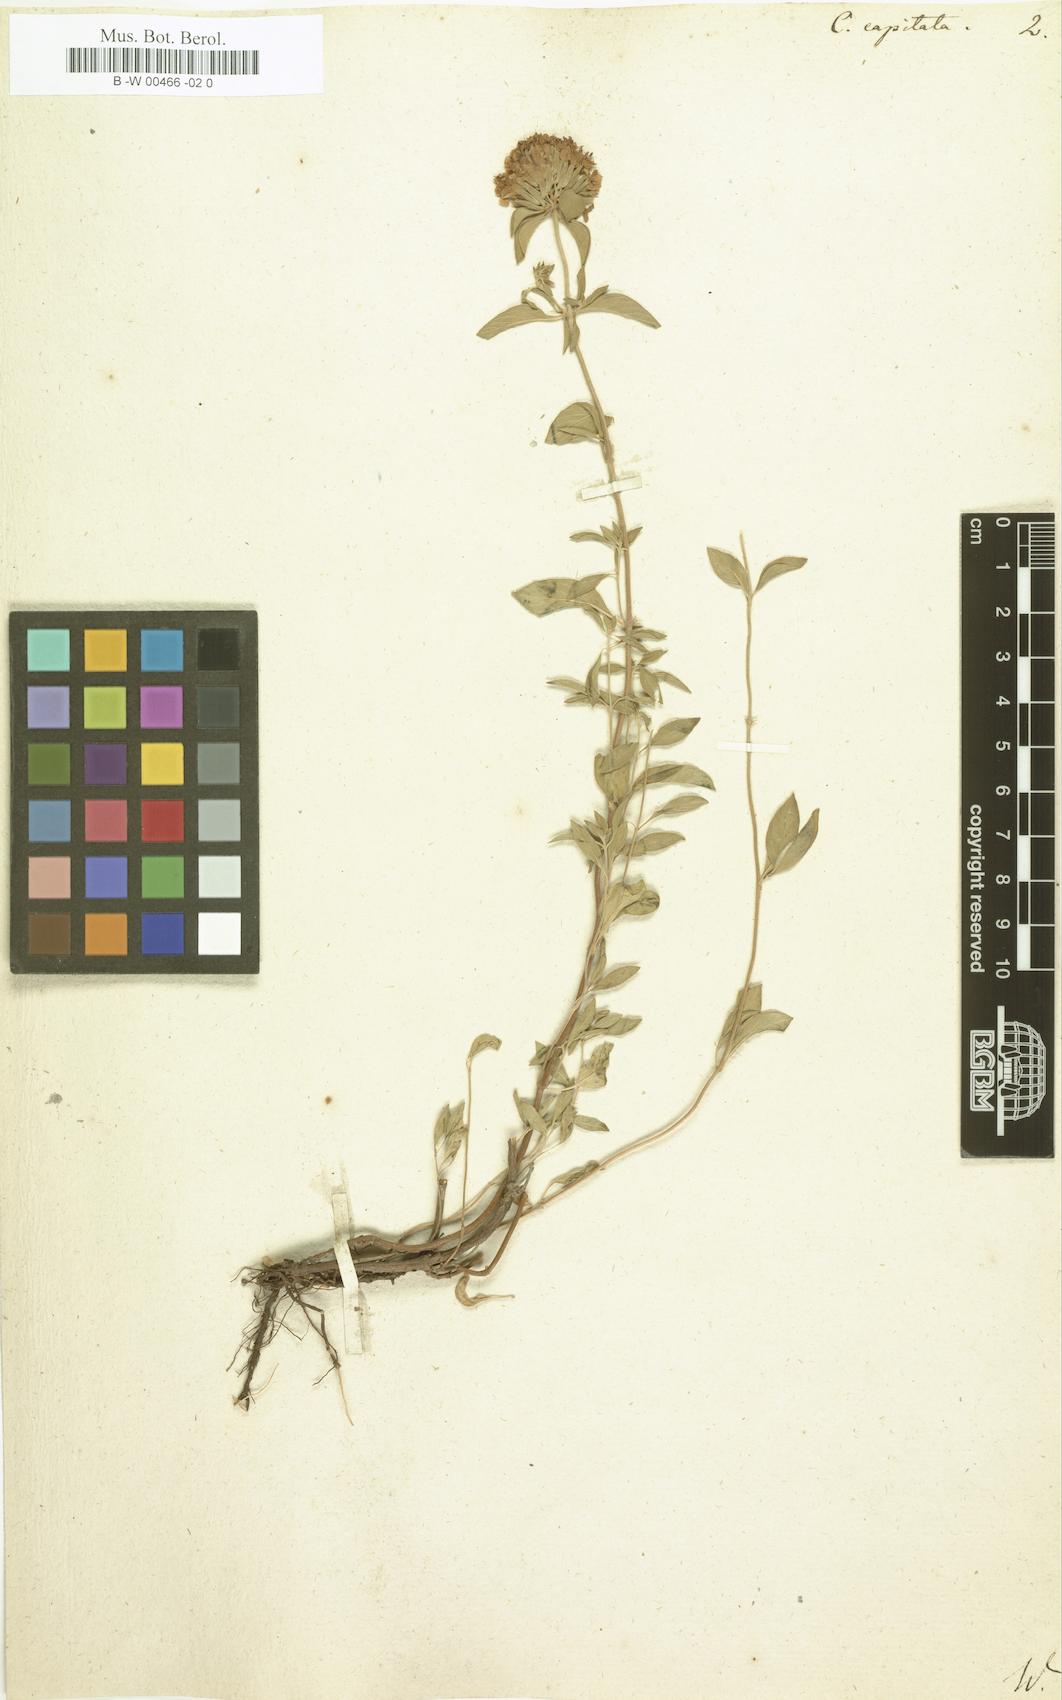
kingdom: Plantae
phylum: Tracheophyta
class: Magnoliopsida
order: Lamiales
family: Lamiaceae
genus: Ziziphora
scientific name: Ziziphora capitata
